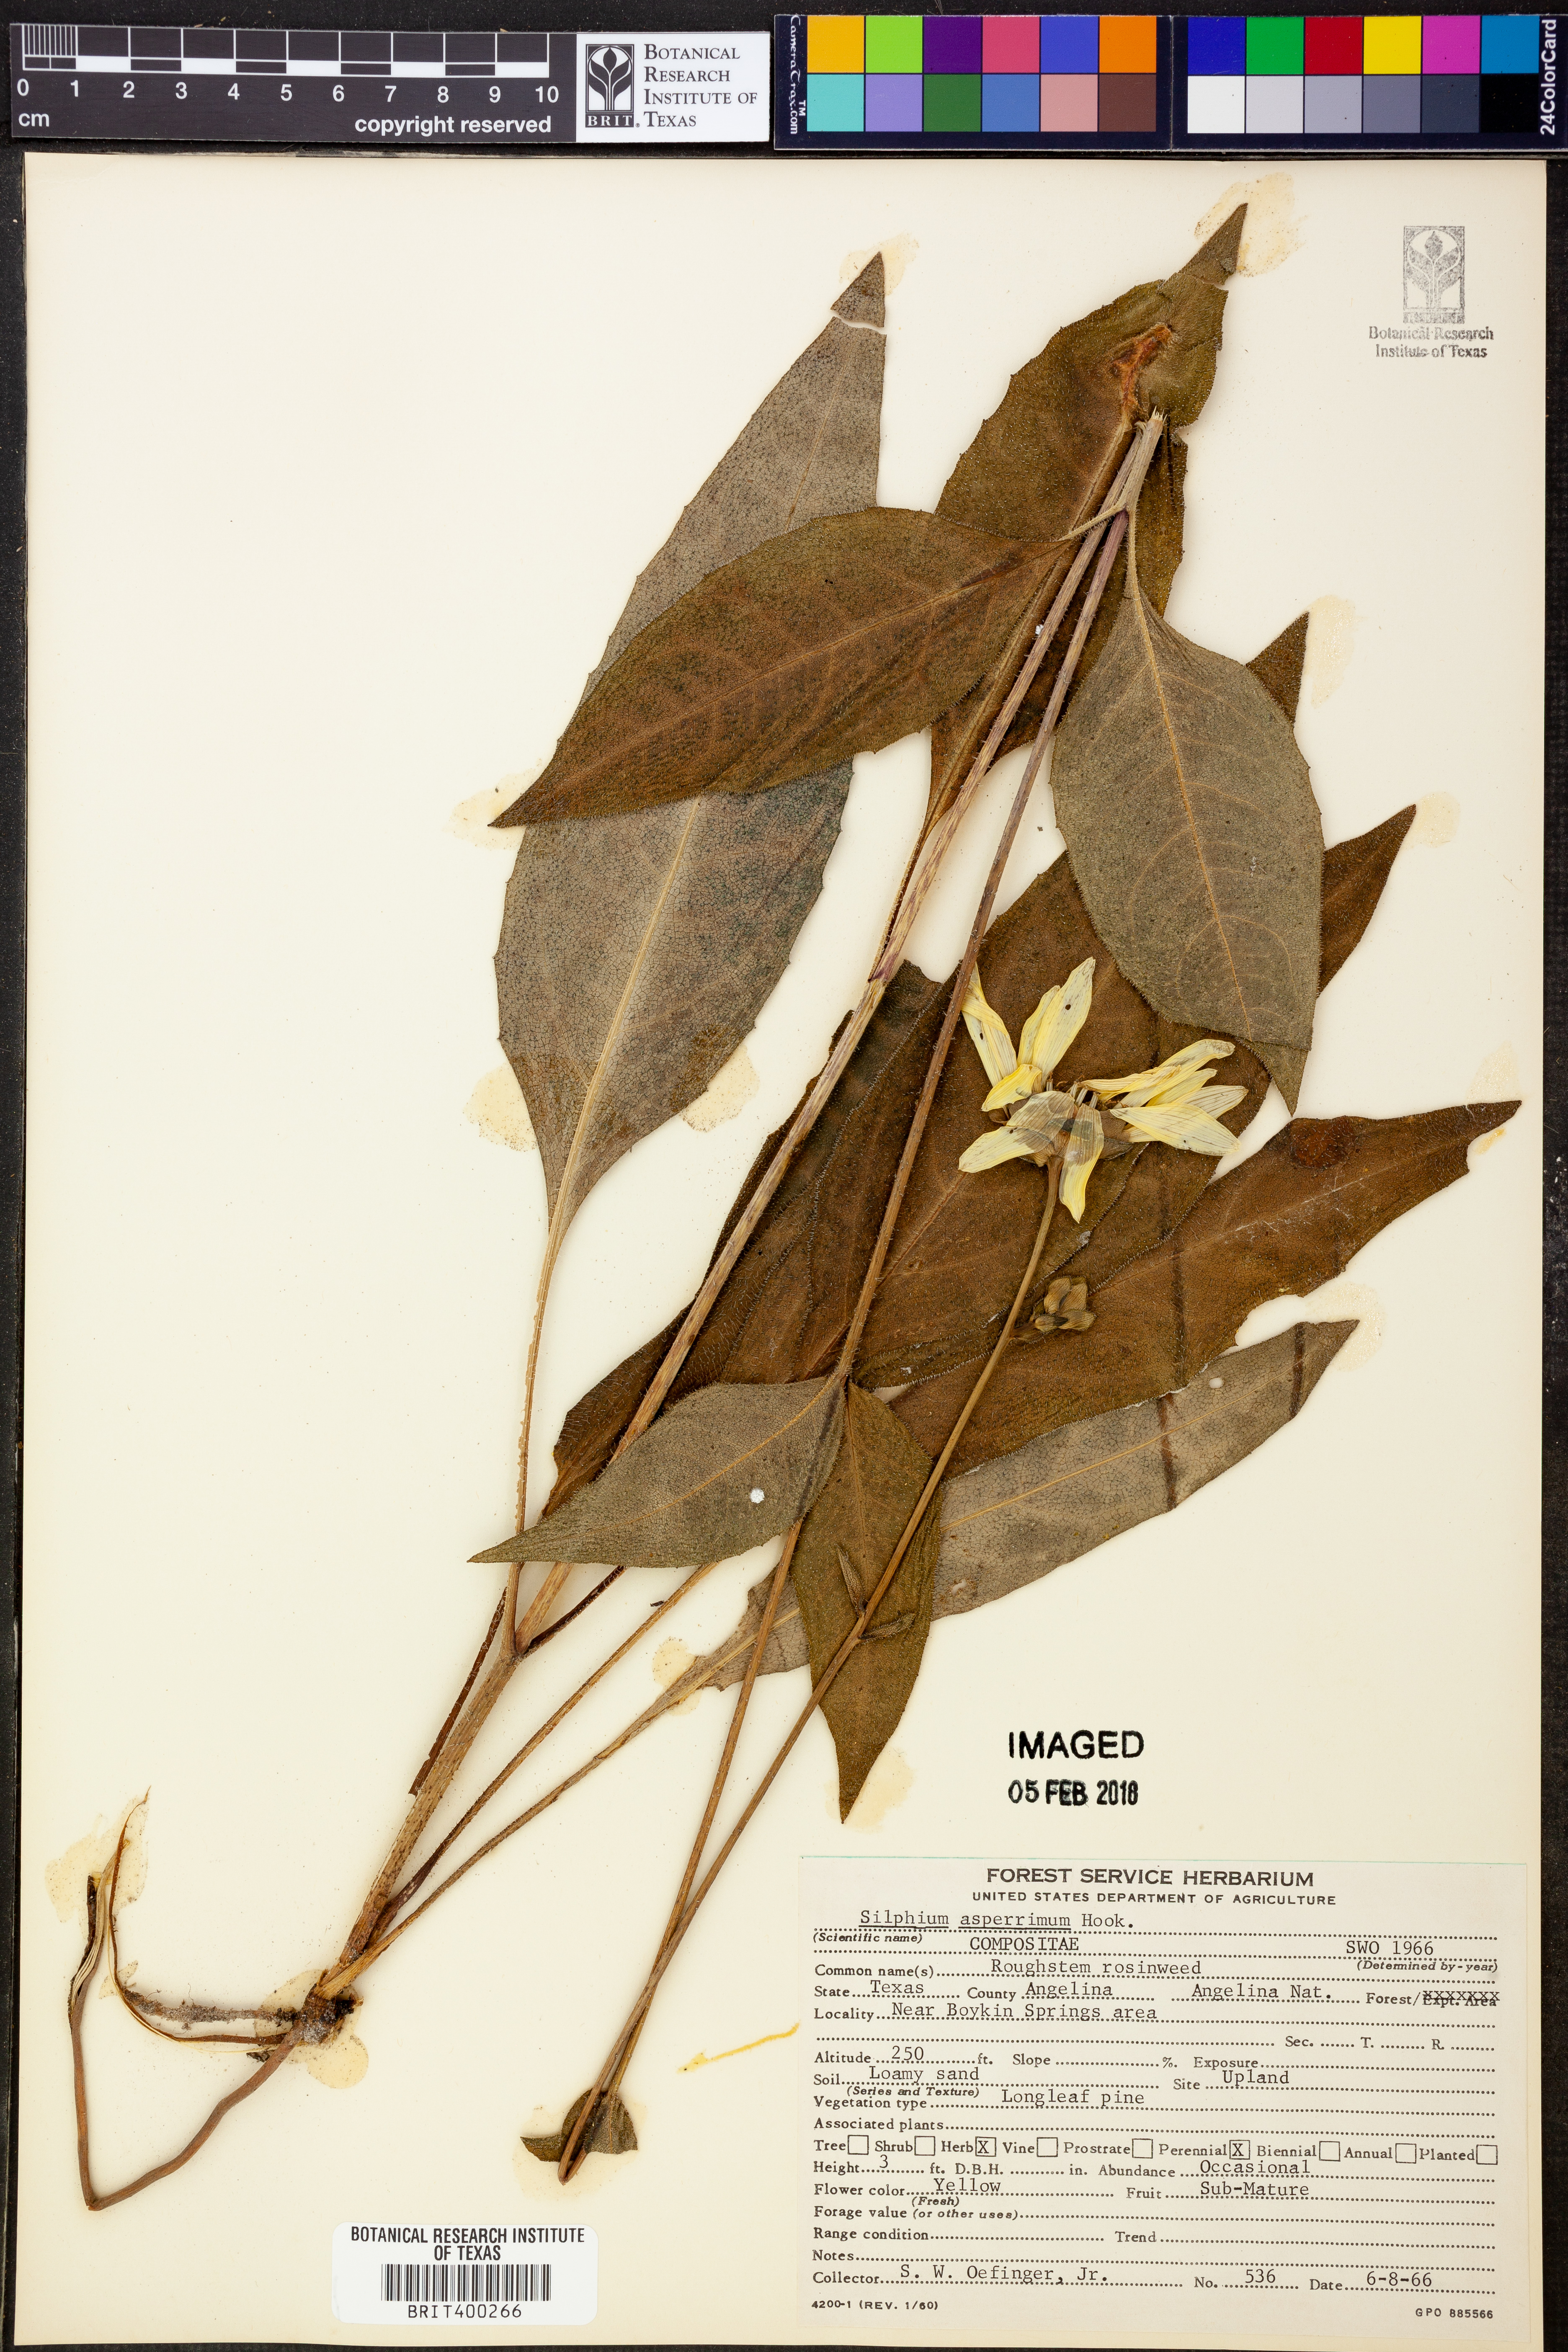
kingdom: Plantae
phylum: Tracheophyta
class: Magnoliopsida
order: Asterales
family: Asteraceae
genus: Silphium
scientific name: Silphium asperrimum
